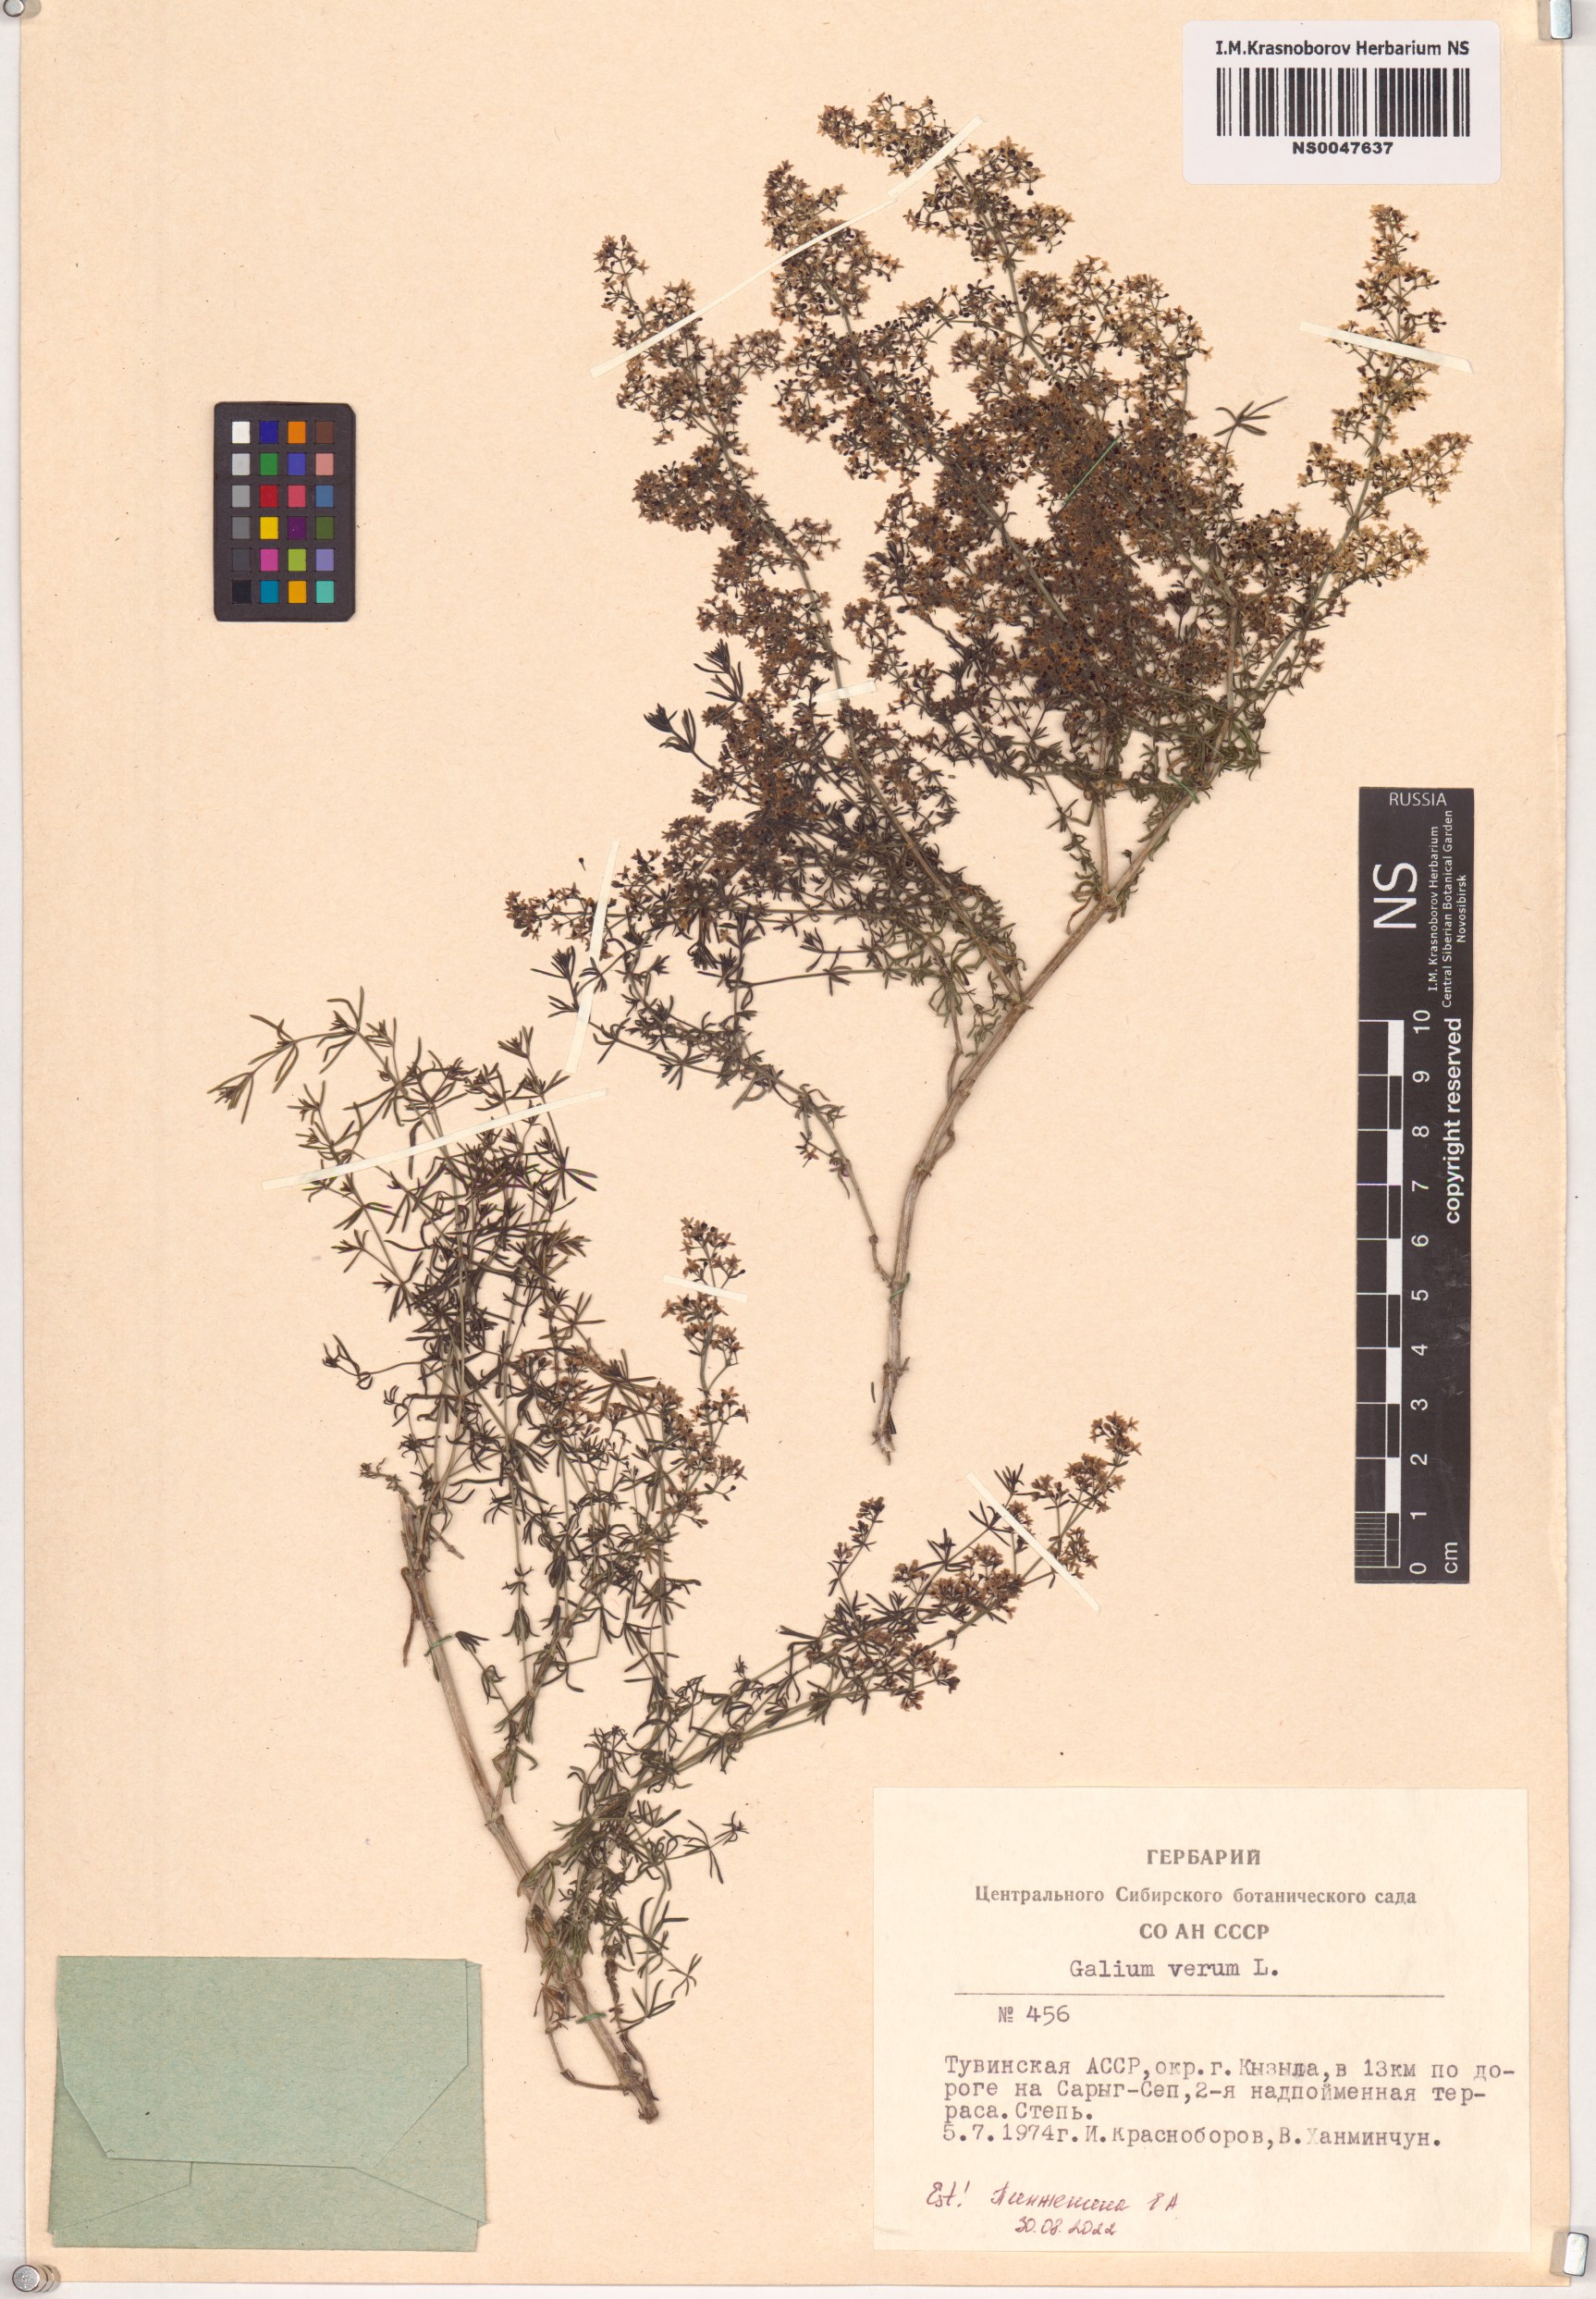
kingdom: Plantae
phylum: Tracheophyta
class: Magnoliopsida
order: Gentianales
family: Rubiaceae
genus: Galium
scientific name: Galium verum
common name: Lady's bedstraw
